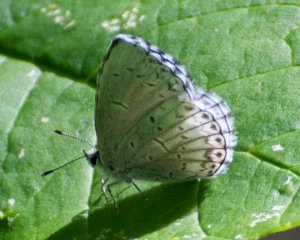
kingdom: Animalia
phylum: Arthropoda
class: Insecta
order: Lepidoptera
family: Lycaenidae
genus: Cyaniris
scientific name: Cyaniris neglecta
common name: Summer Azure
